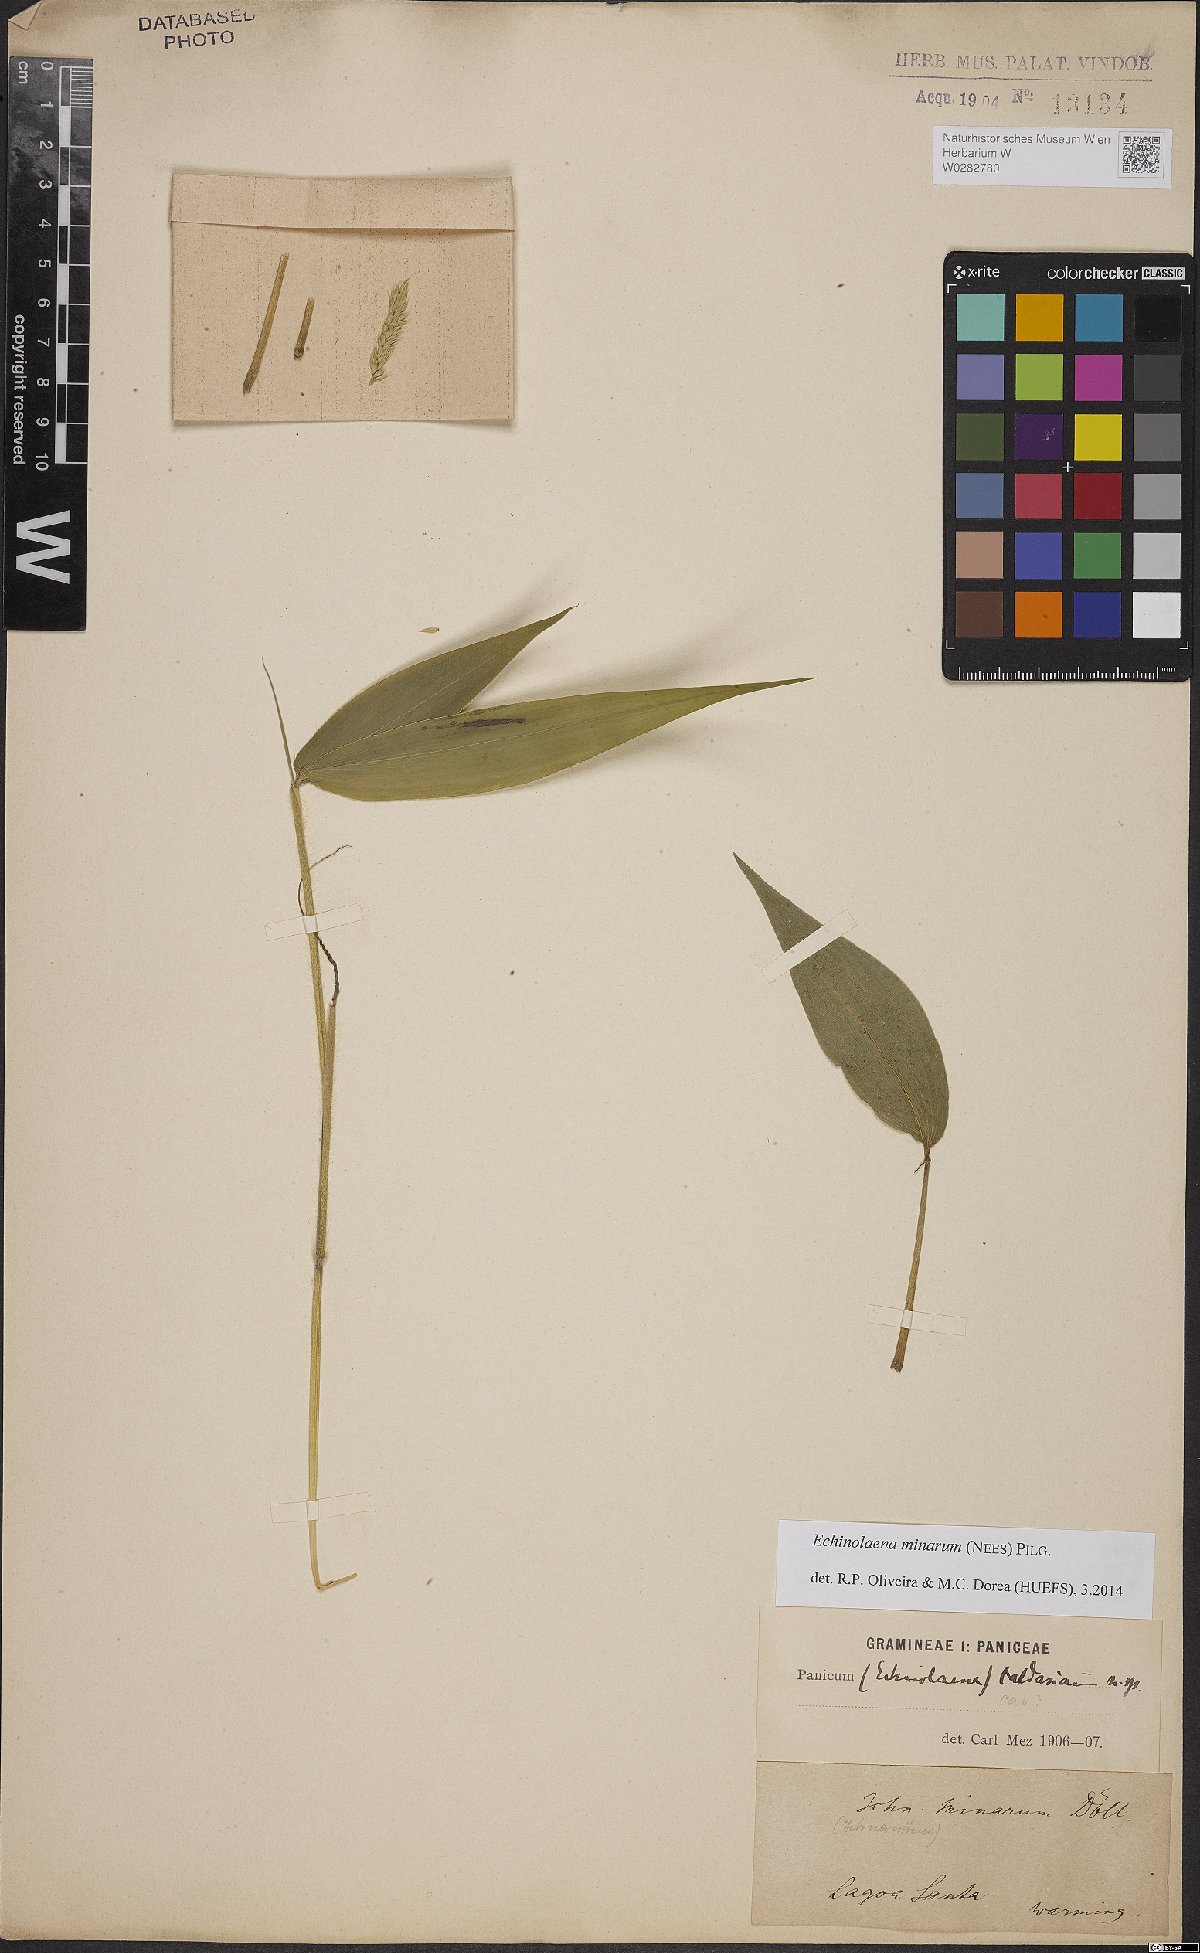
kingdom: Plantae
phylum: Tracheophyta
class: Liliopsida
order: Poales
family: Poaceae
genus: Oedochloa
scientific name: Oedochloa minarum
